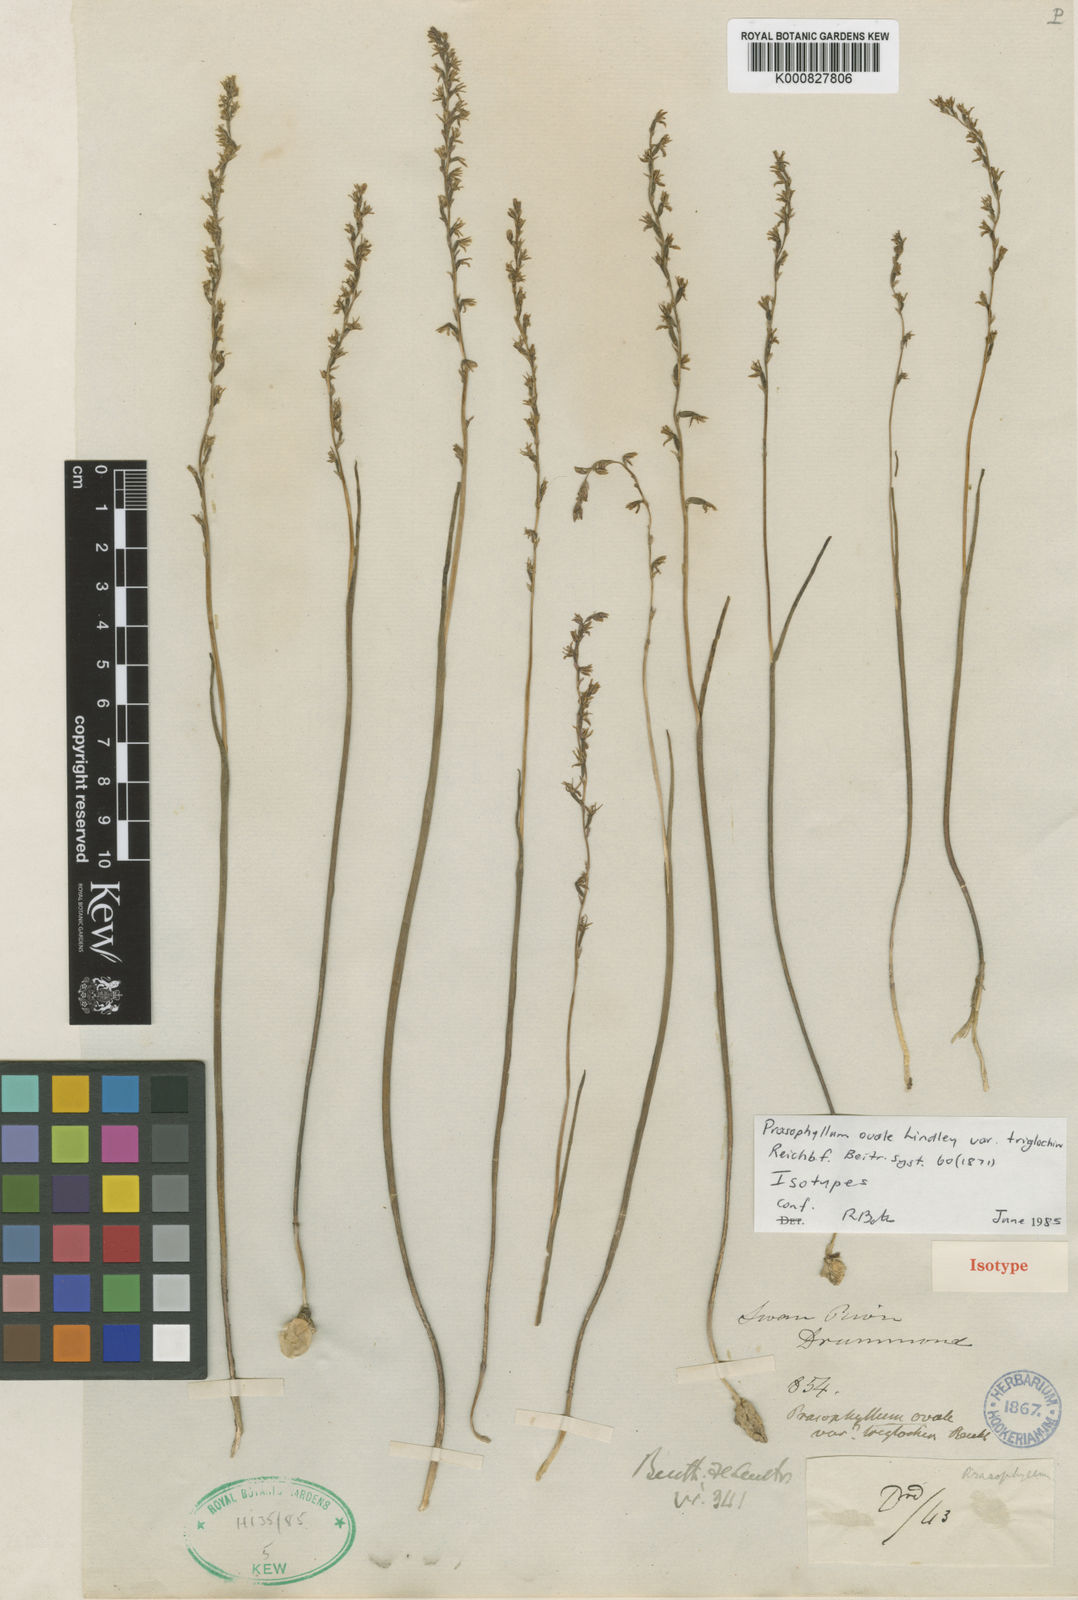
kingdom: Plantae
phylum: Tracheophyta
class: Liliopsida
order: Asparagales
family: Orchidaceae
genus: Prasophyllum
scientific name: Prasophyllum plumiforme
